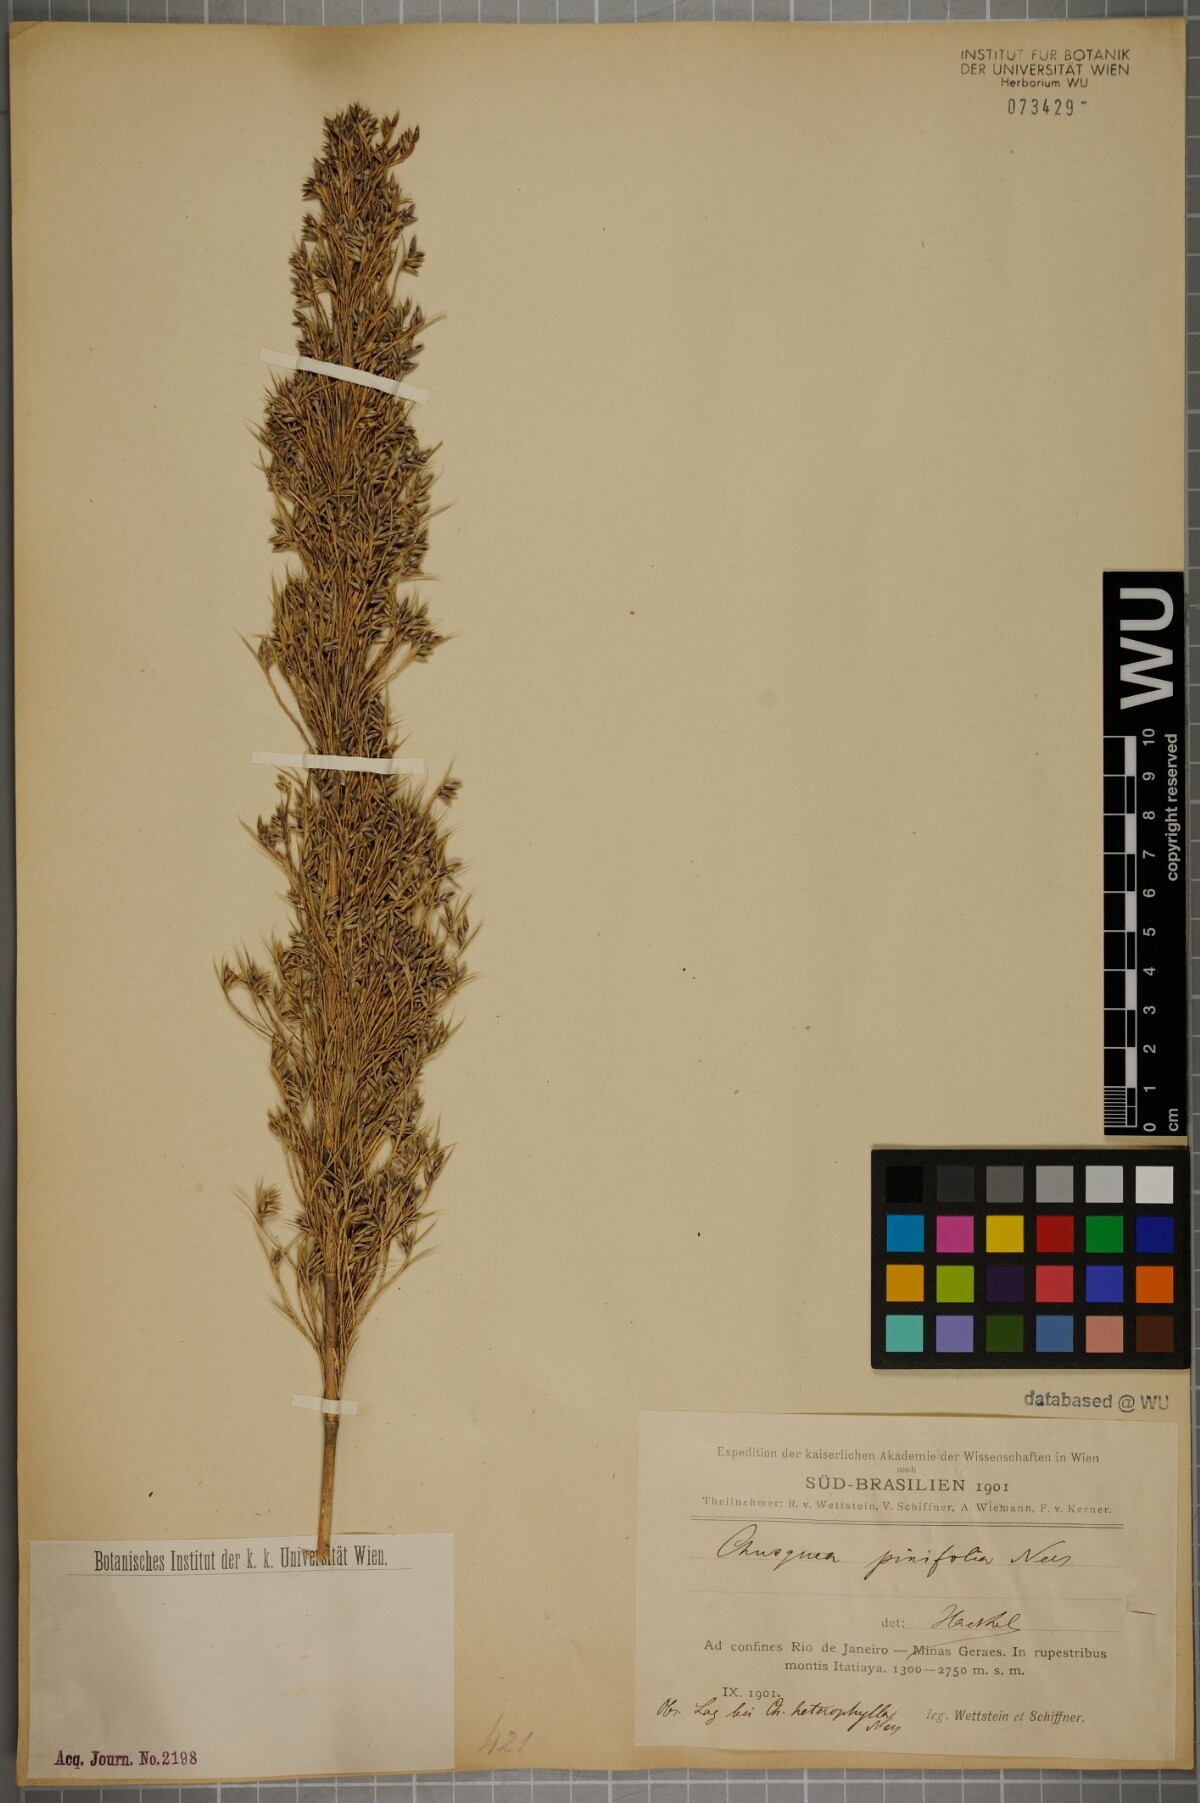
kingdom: Plantae
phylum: Tracheophyta
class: Liliopsida
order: Poales
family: Poaceae
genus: Chusquea
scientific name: Chusquea pinifolia
